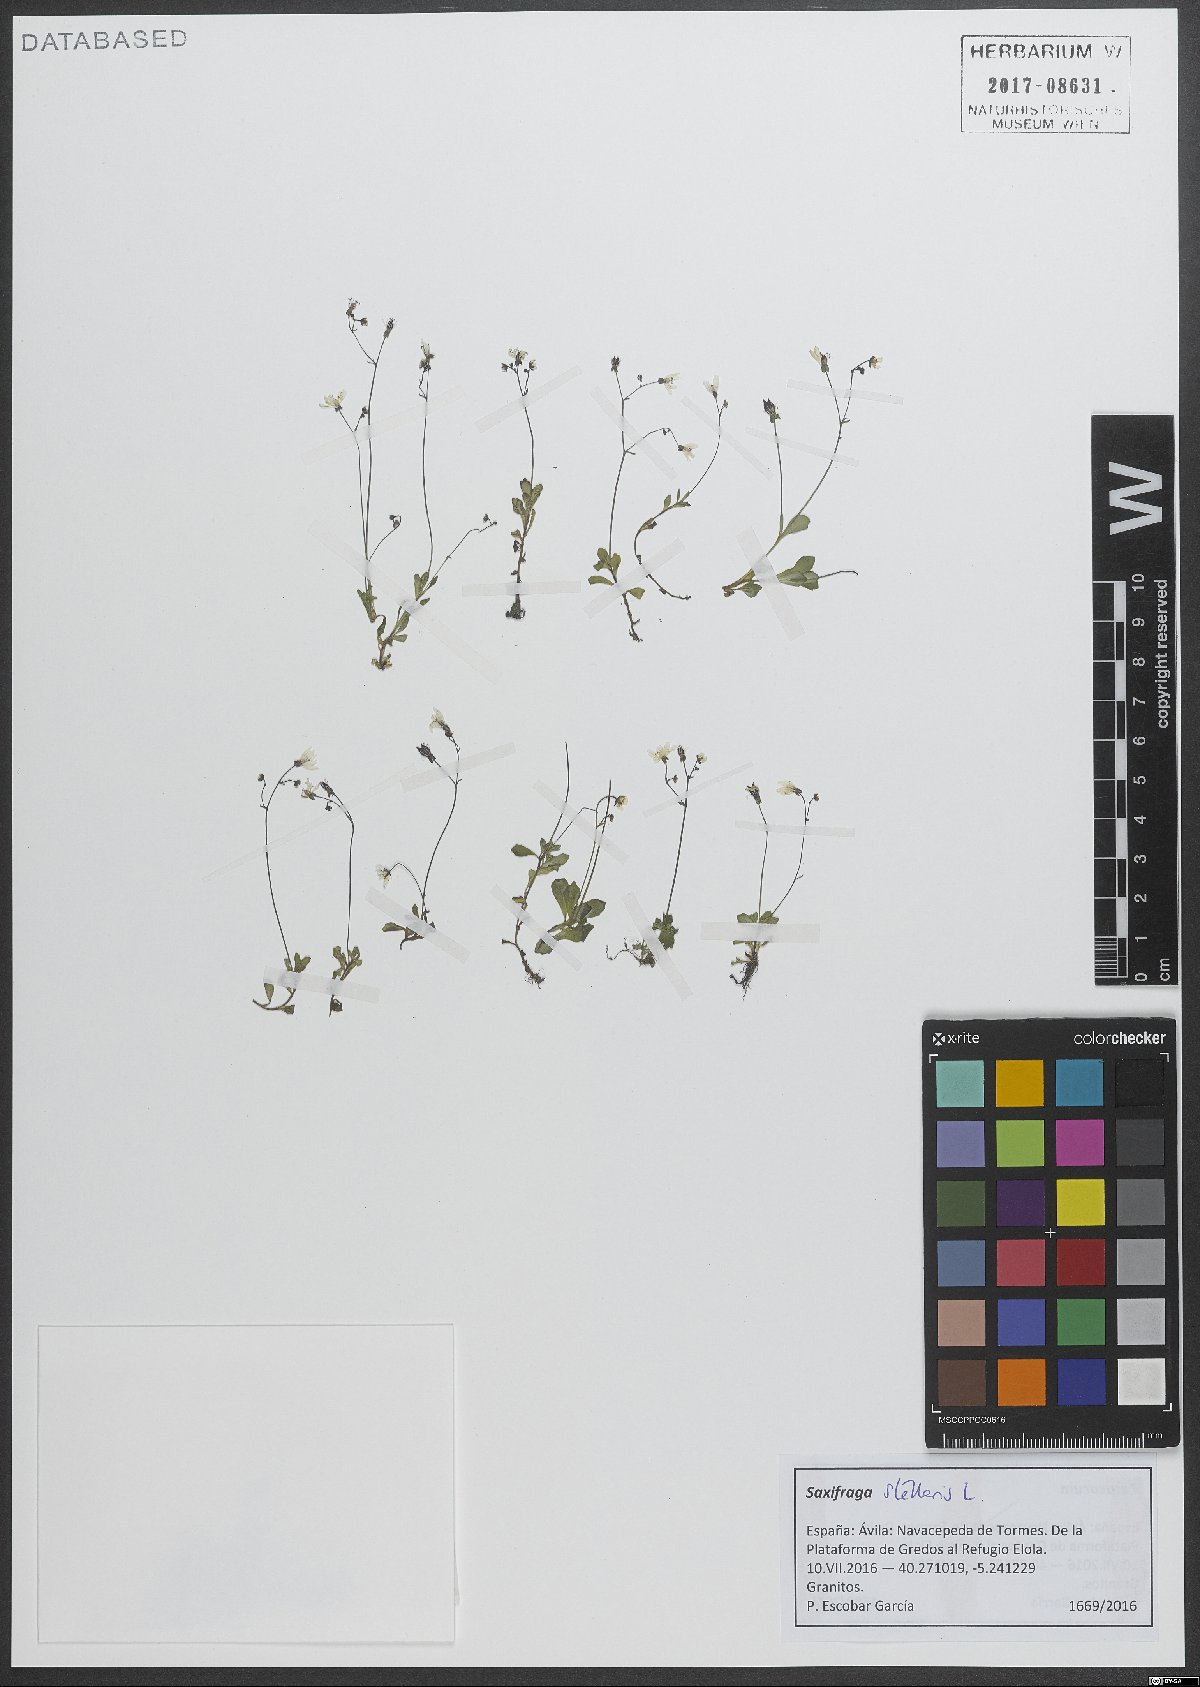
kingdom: Plantae
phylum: Tracheophyta
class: Magnoliopsida
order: Saxifragales
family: Saxifragaceae
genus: Micranthes
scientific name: Micranthes stellaris
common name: Starry saxifrage
